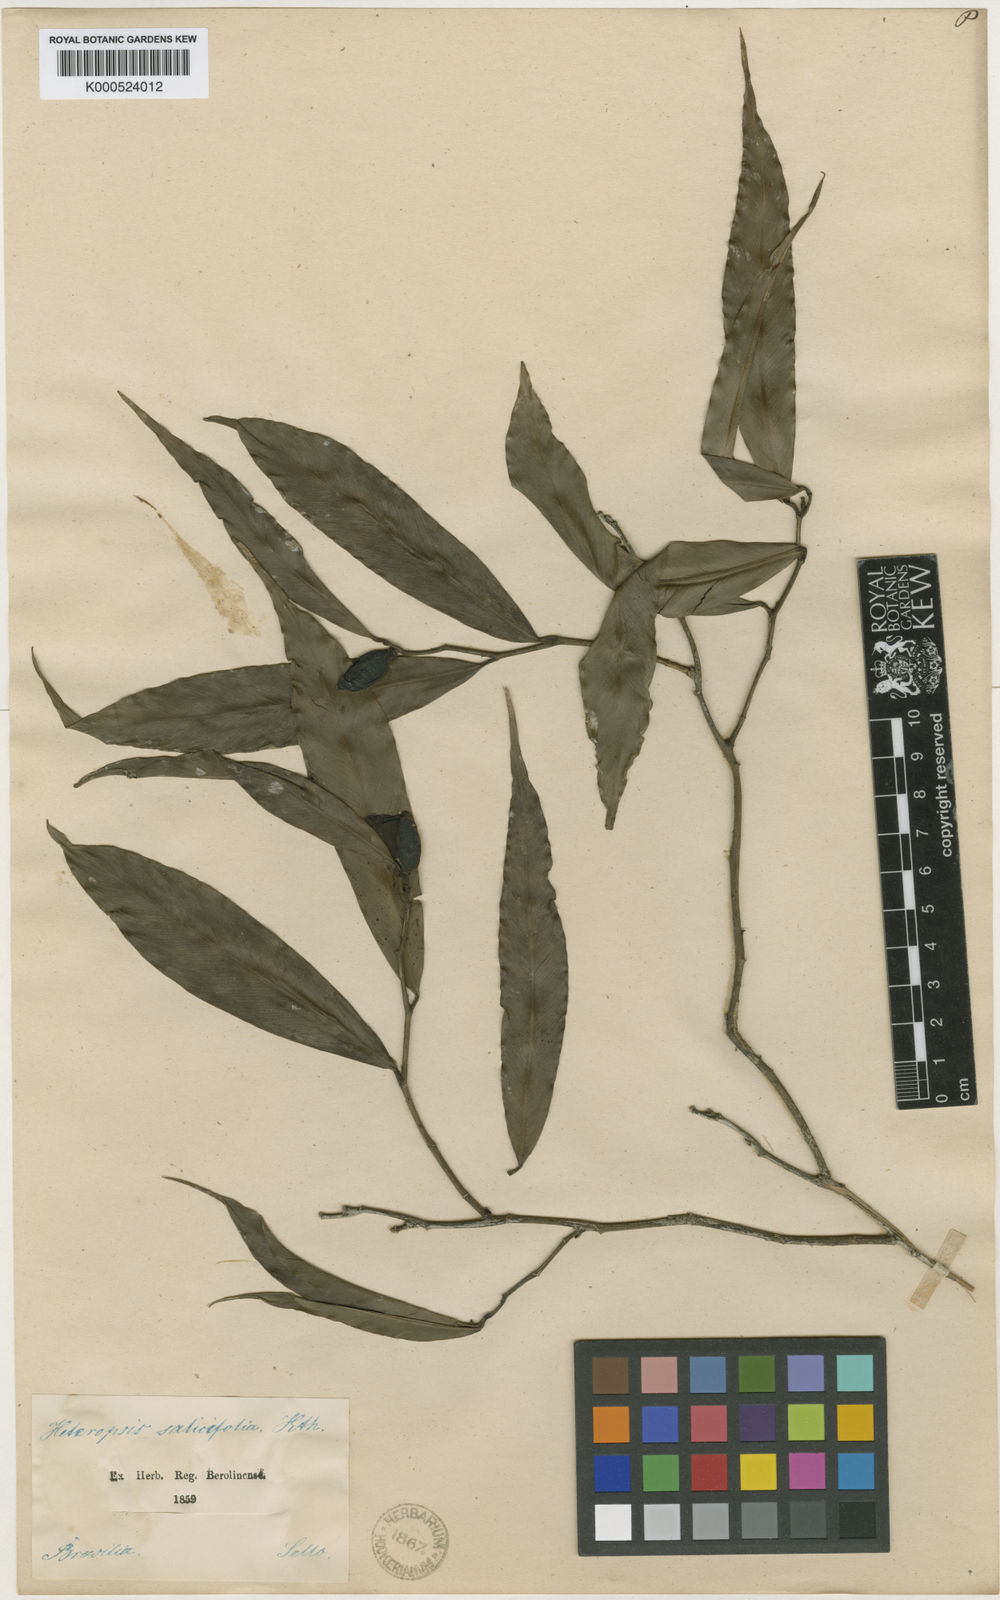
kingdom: Plantae
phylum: Tracheophyta
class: Liliopsida
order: Alismatales
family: Araceae
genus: Heteropsis
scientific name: Heteropsis salicifolia
